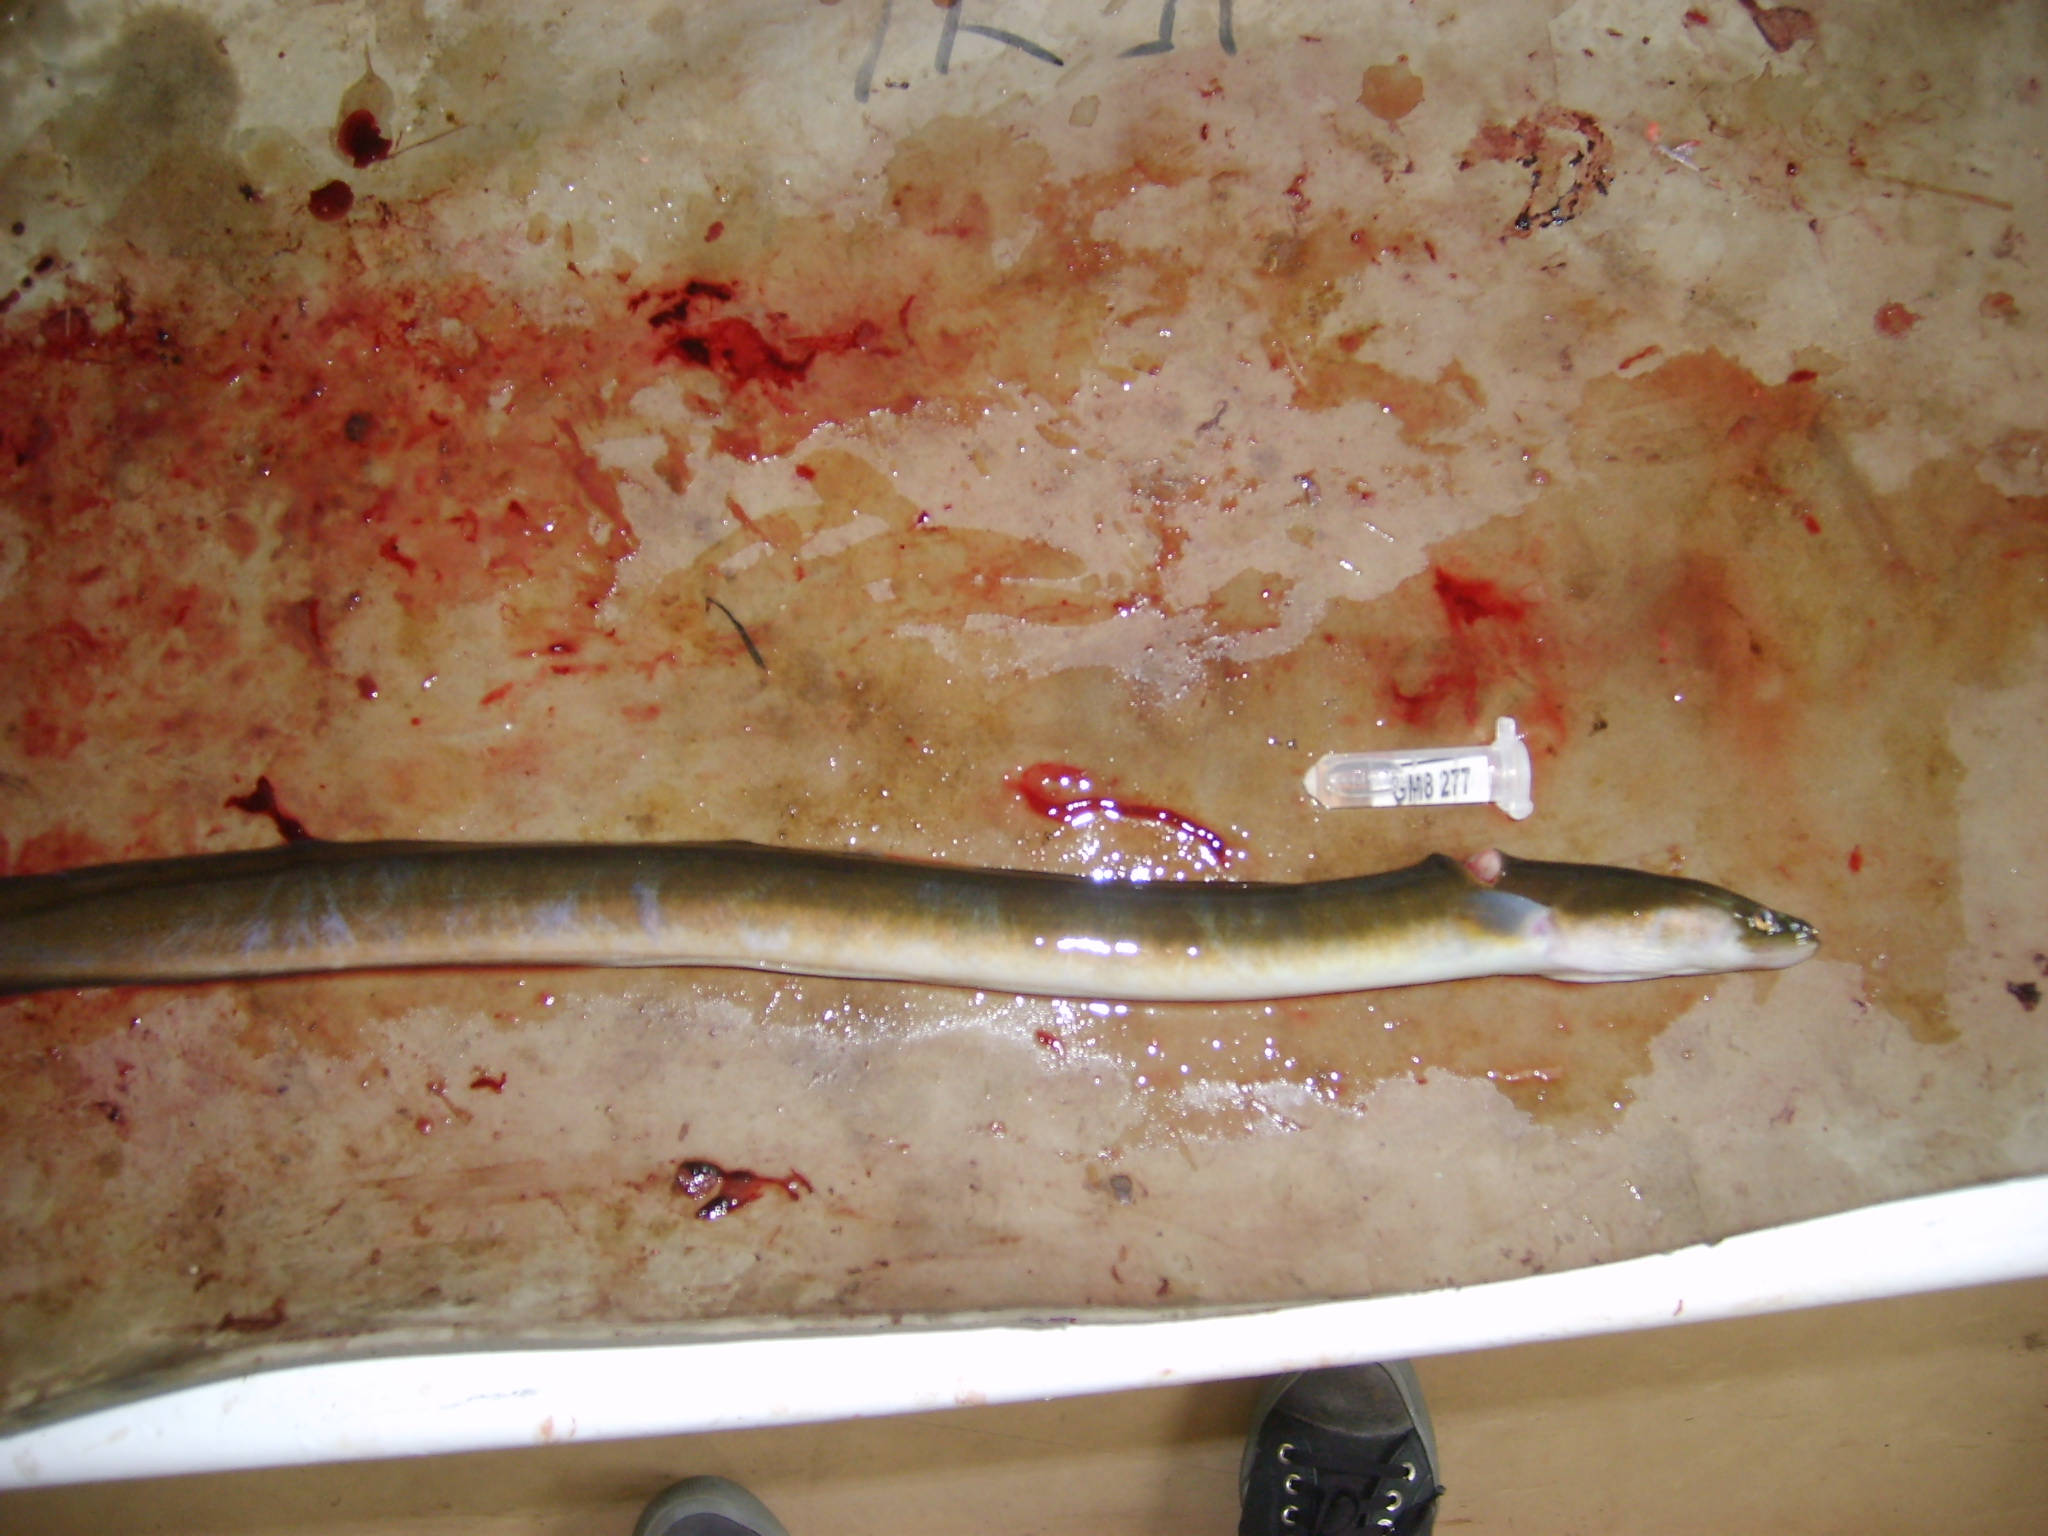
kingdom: Animalia
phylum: Chordata
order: Anguilliformes
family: Anguillidae
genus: Anguilla
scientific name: Anguilla mossambica
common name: African longfin eel
